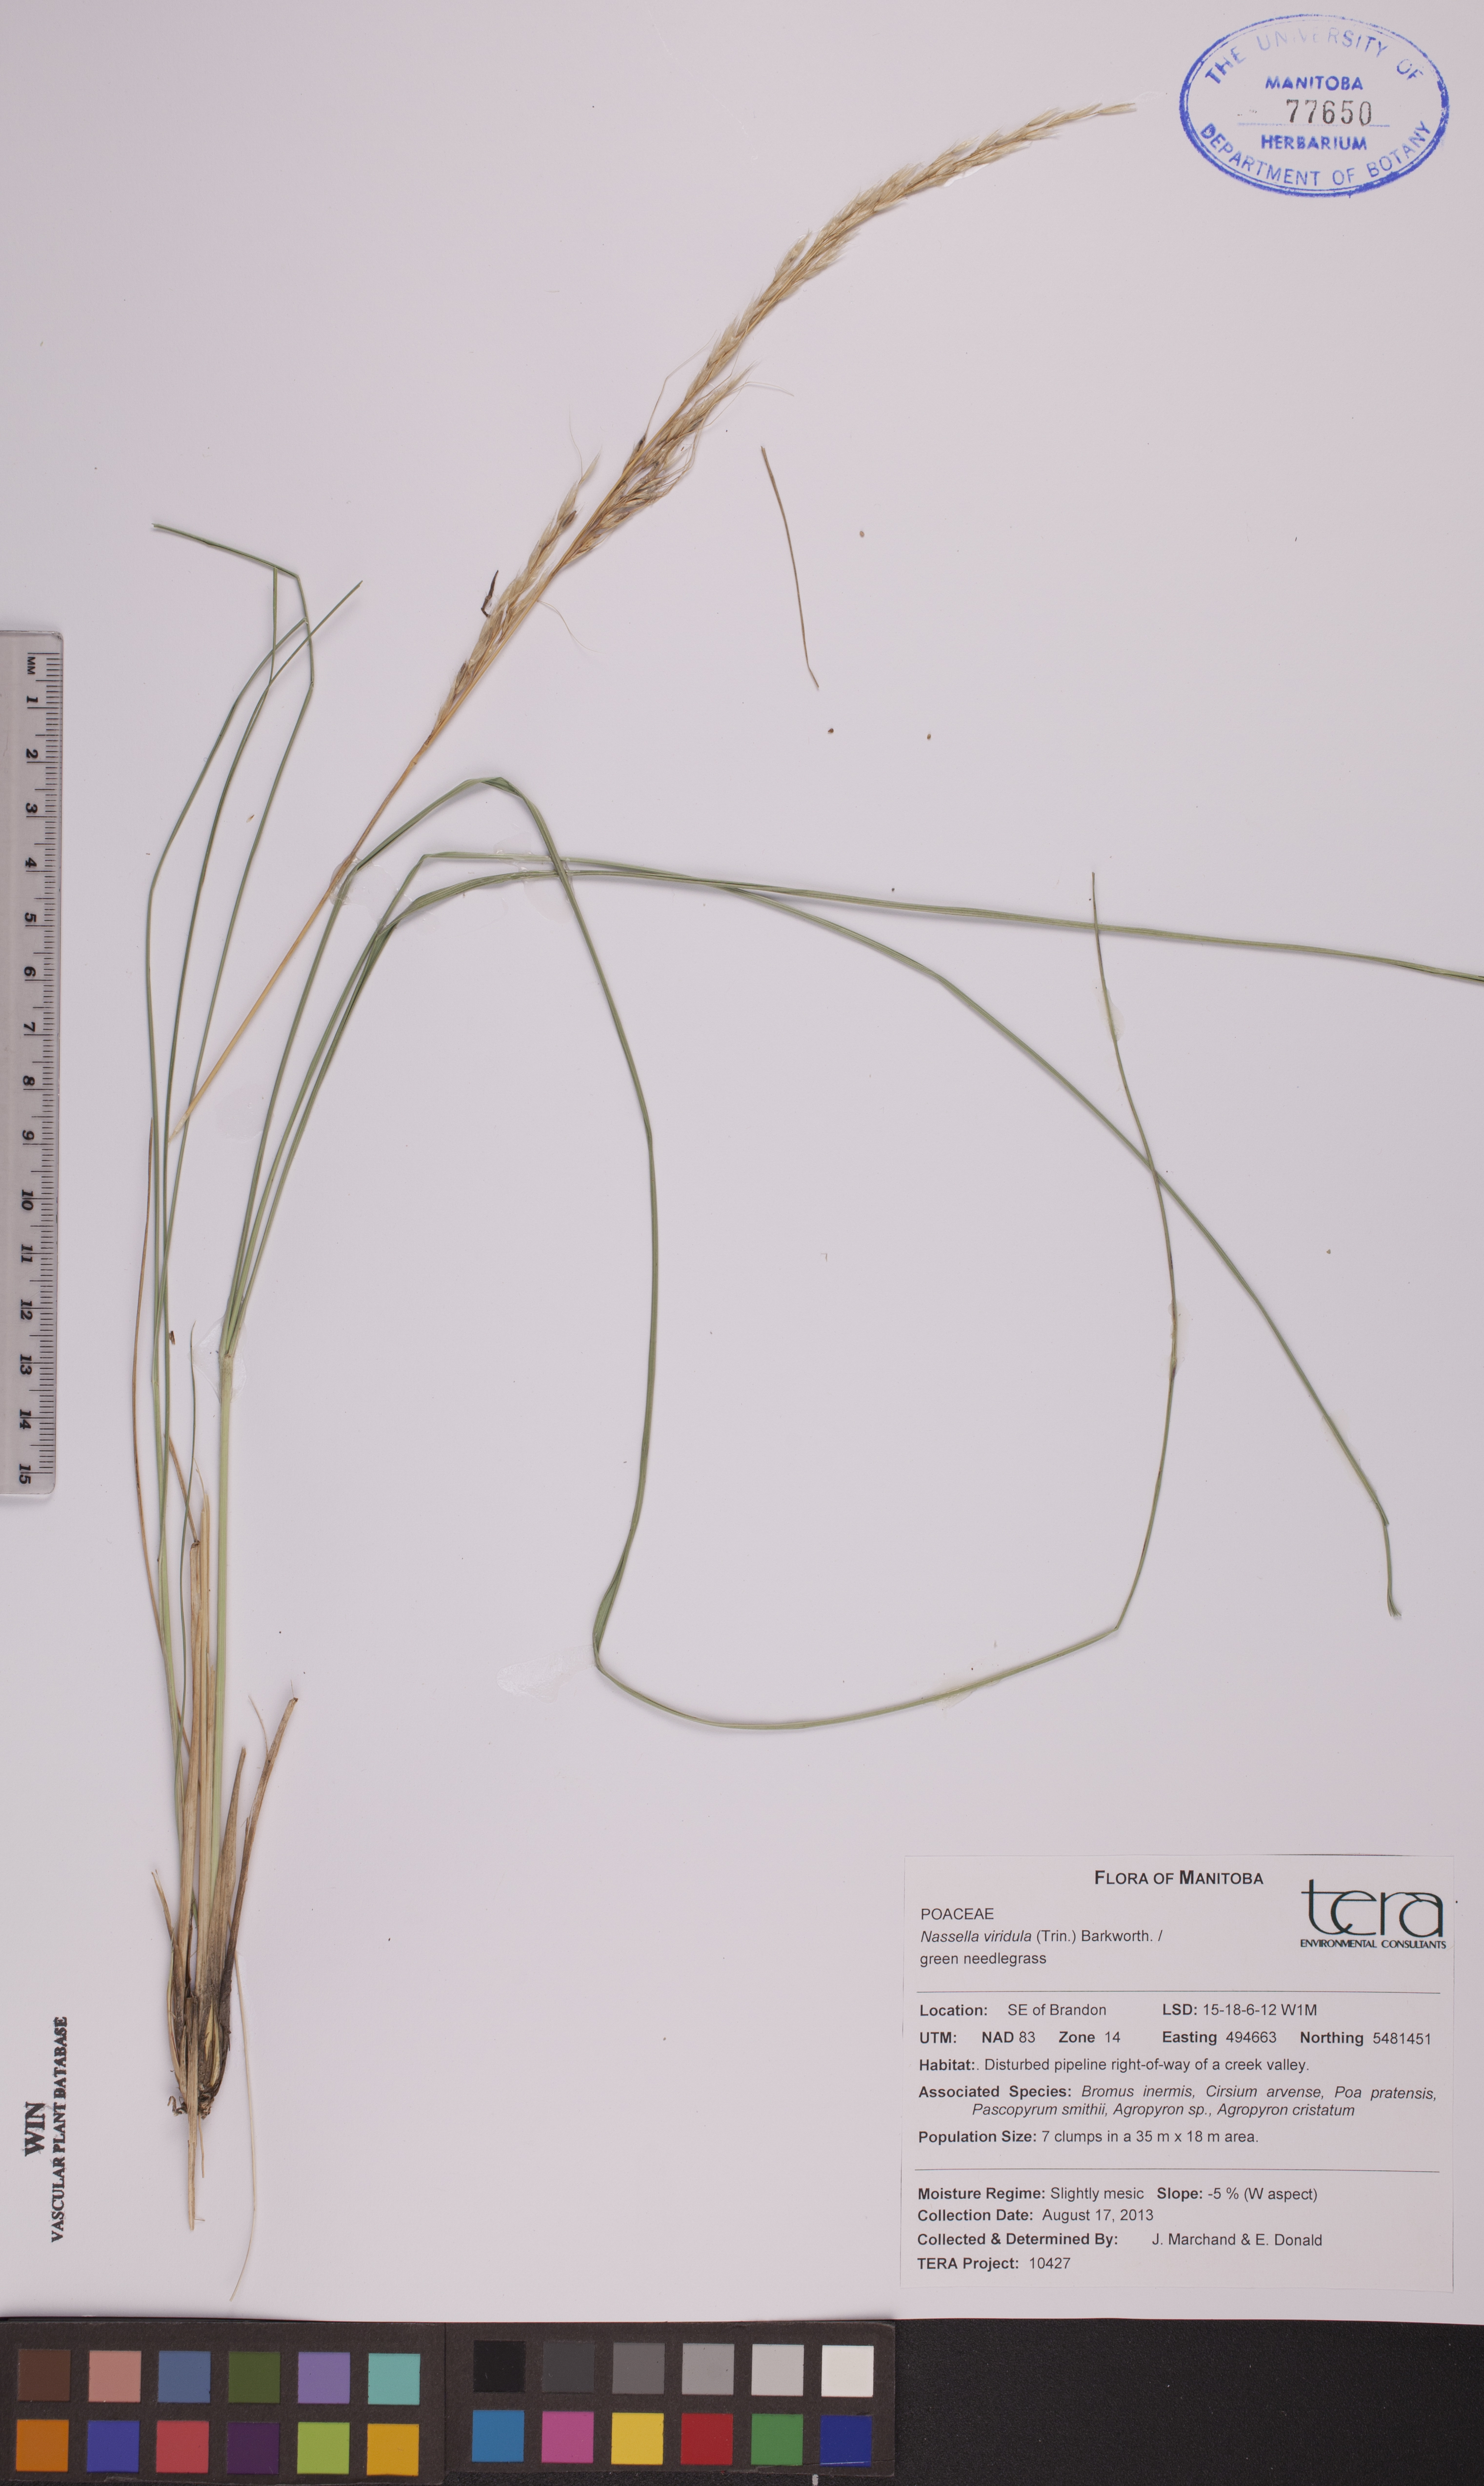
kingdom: Plantae
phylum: Tracheophyta
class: Liliopsida
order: Poales
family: Poaceae
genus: Nassella
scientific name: Nassella viridula
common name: Green needlegrass
